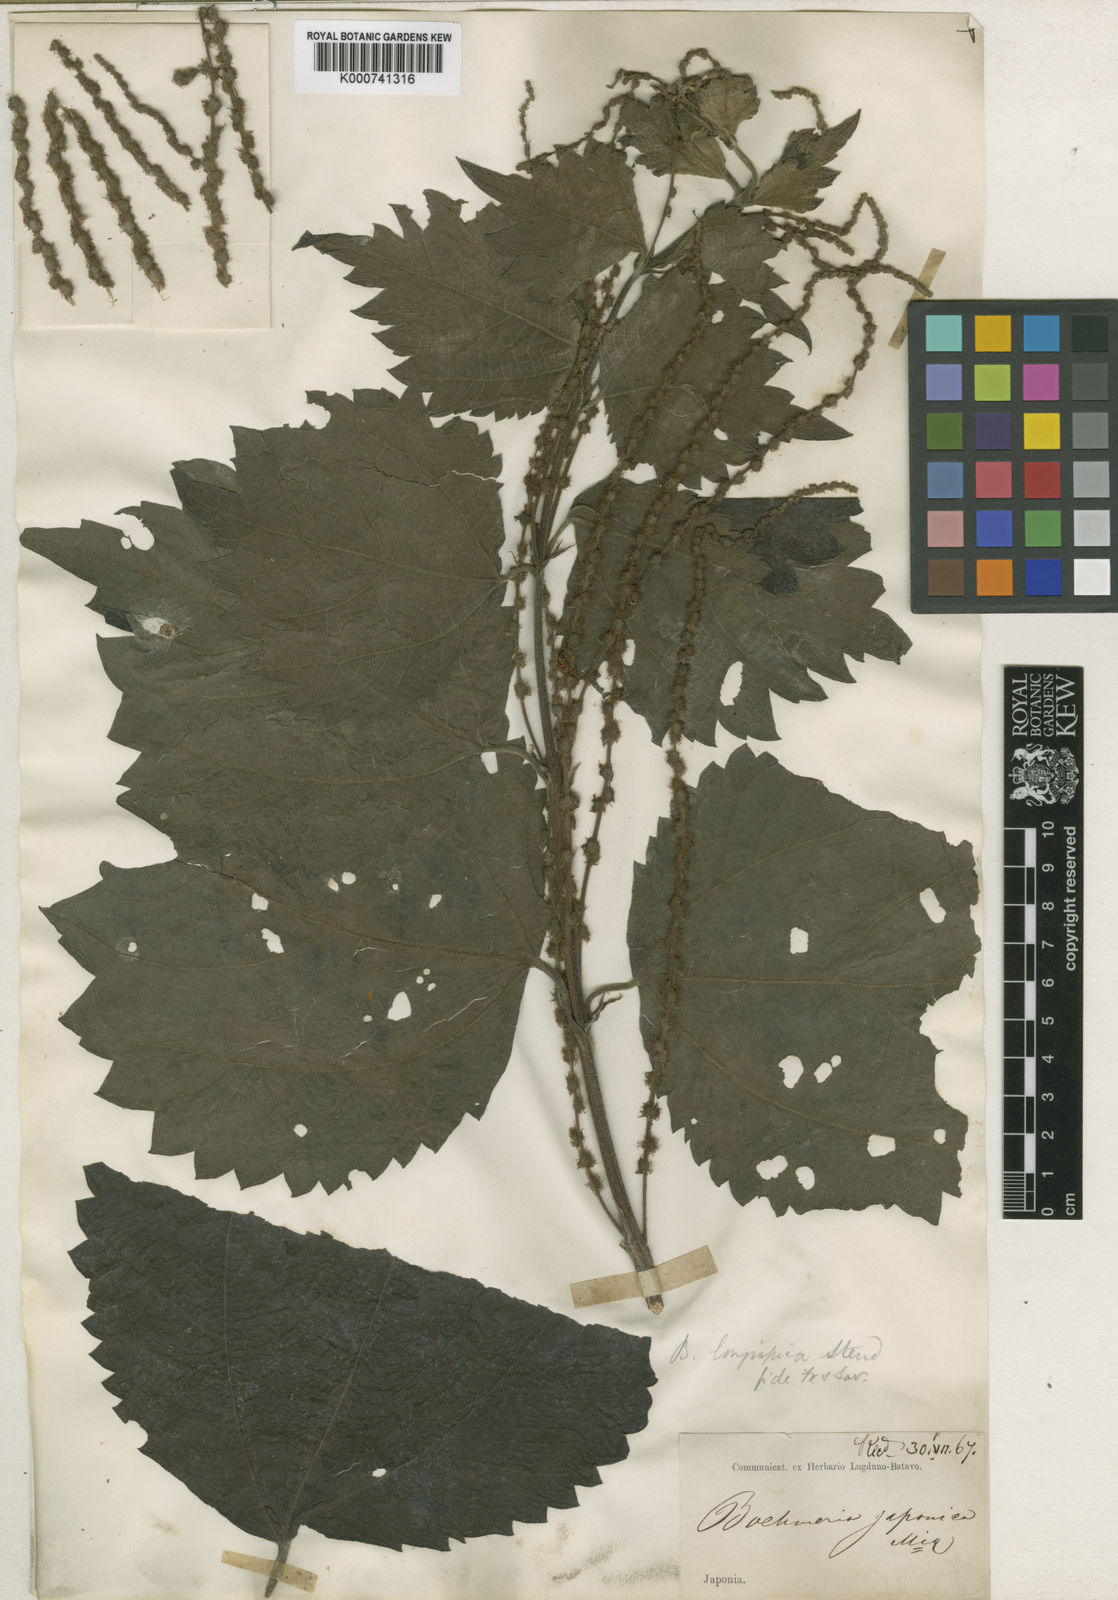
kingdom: Plantae
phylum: Tracheophyta
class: Magnoliopsida
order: Rosales
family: Urticaceae
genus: Boehmeria
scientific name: Boehmeria japonica
